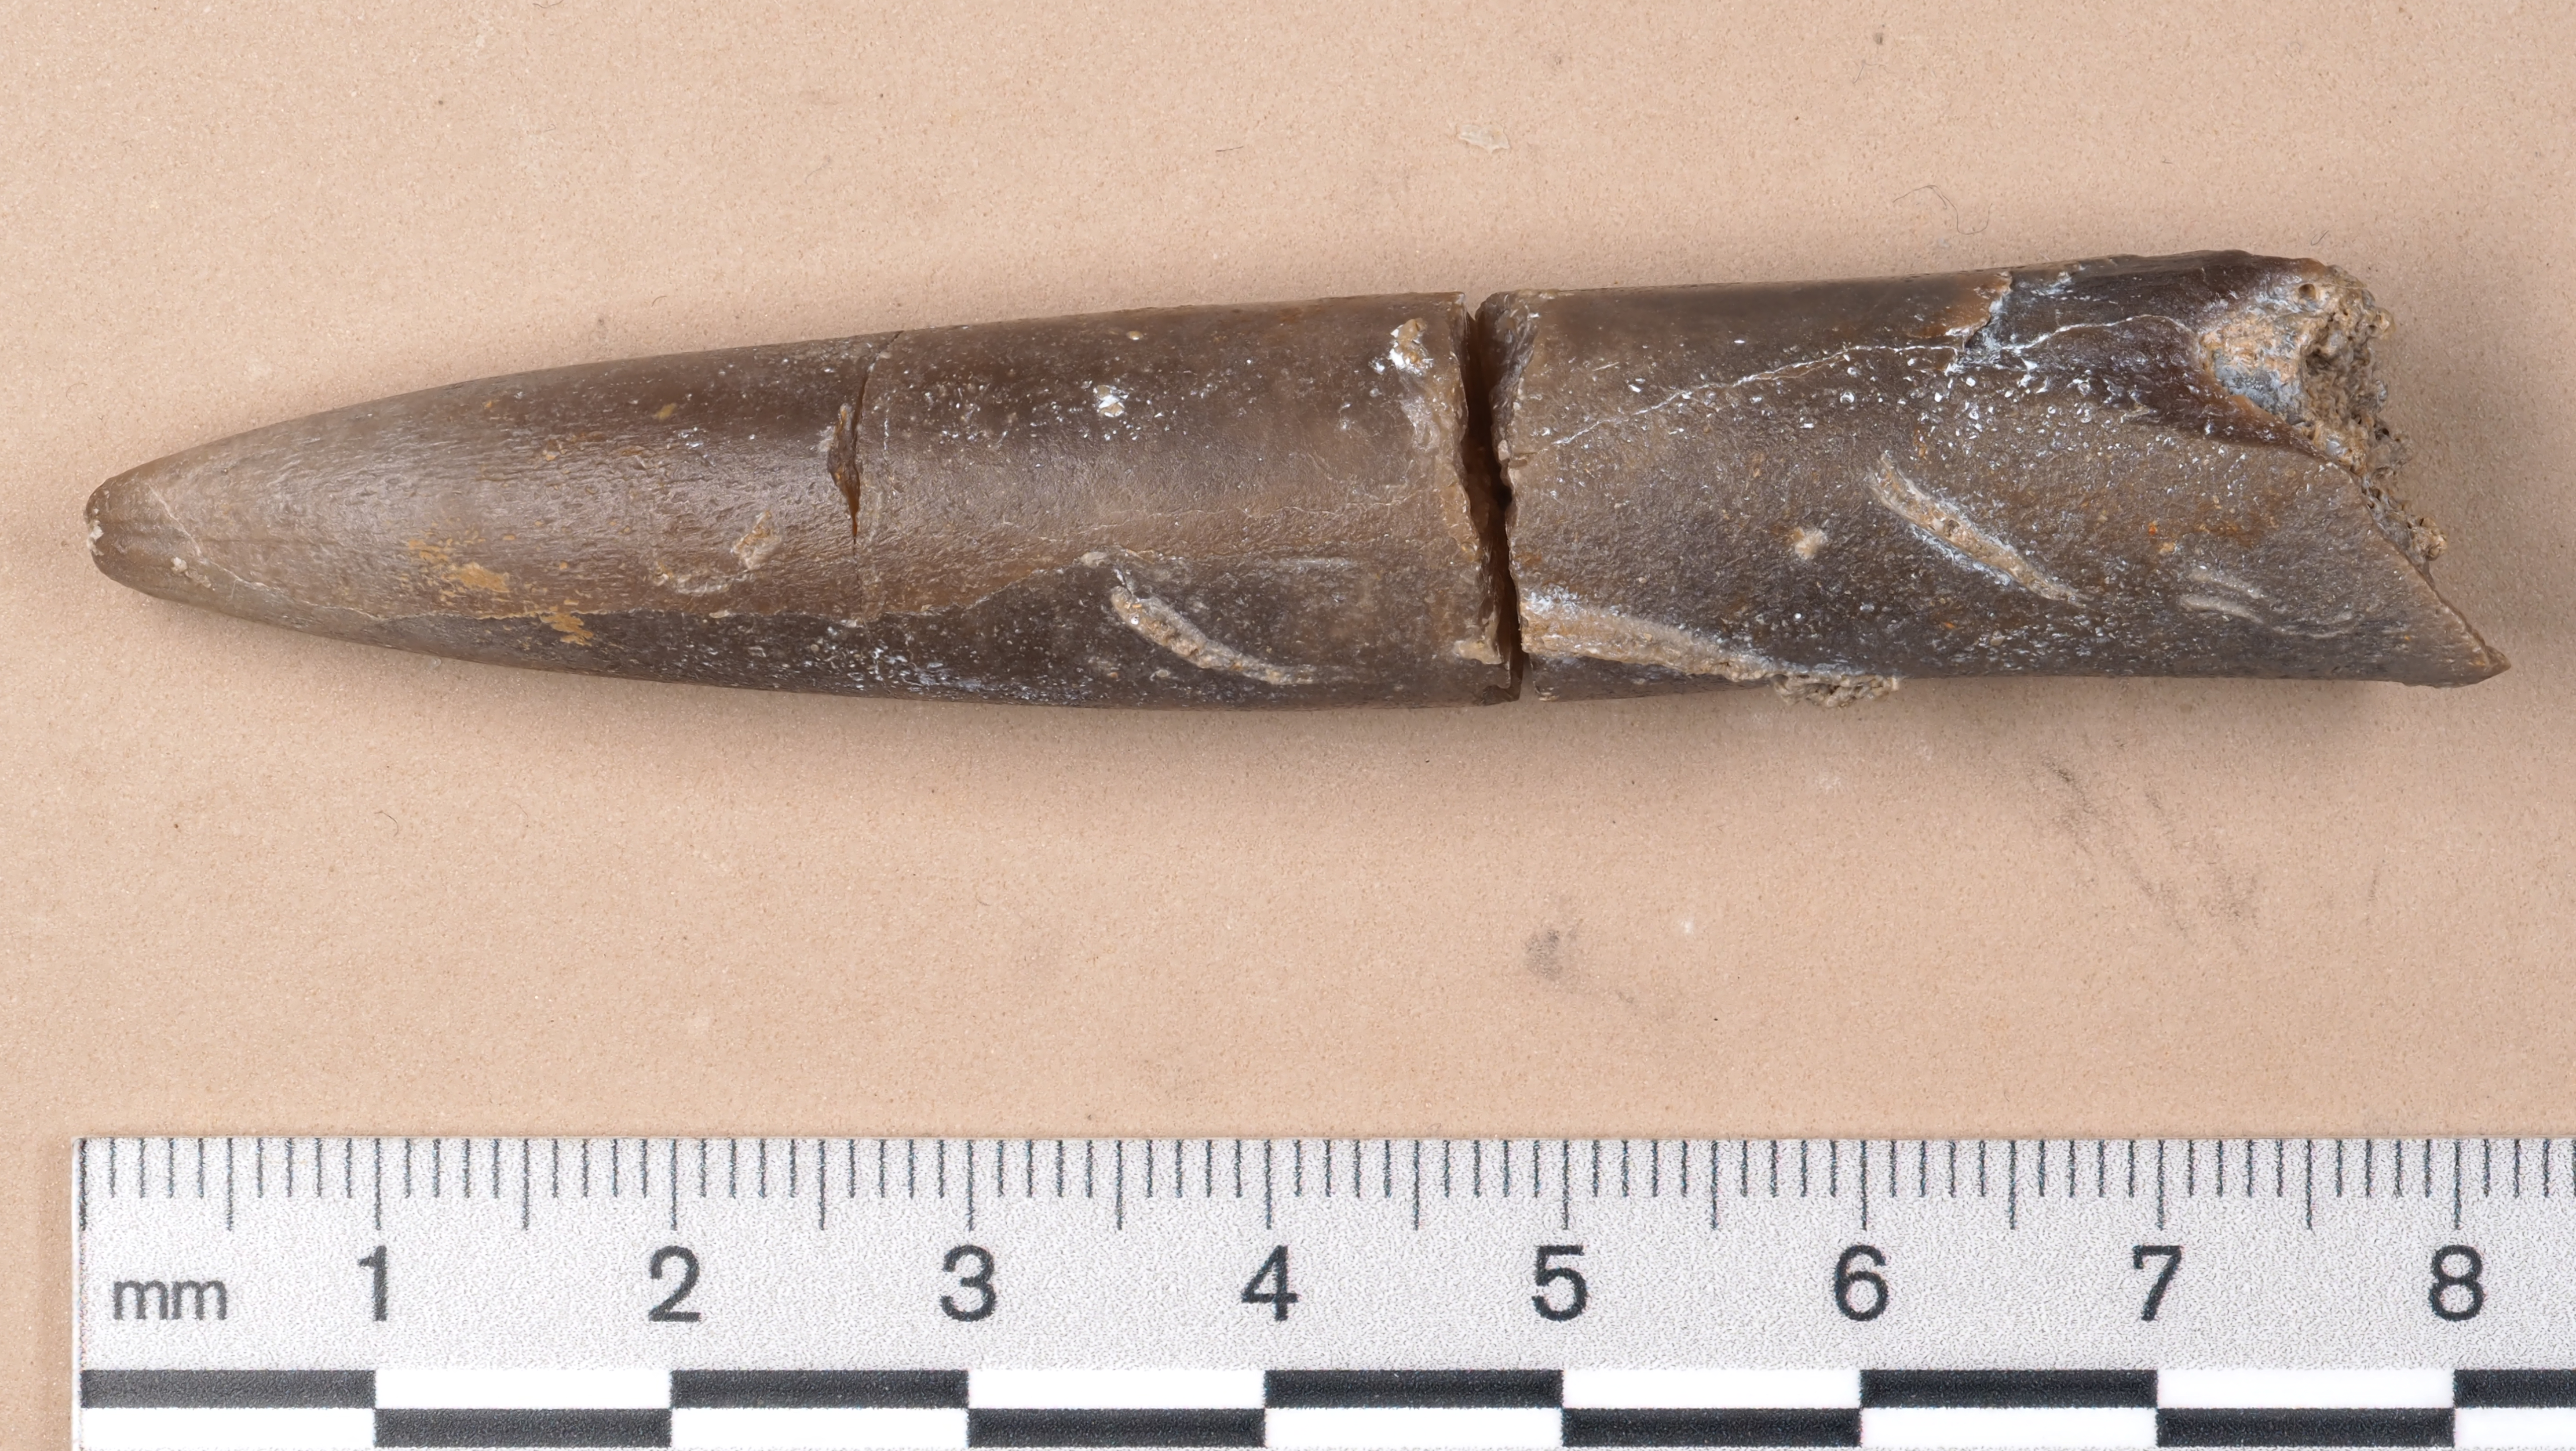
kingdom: Animalia
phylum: Mollusca
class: Cephalopoda
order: Belemnitida
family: Passaloteuthidae
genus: Passaloteuthis
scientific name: Passaloteuthis bisulcata
